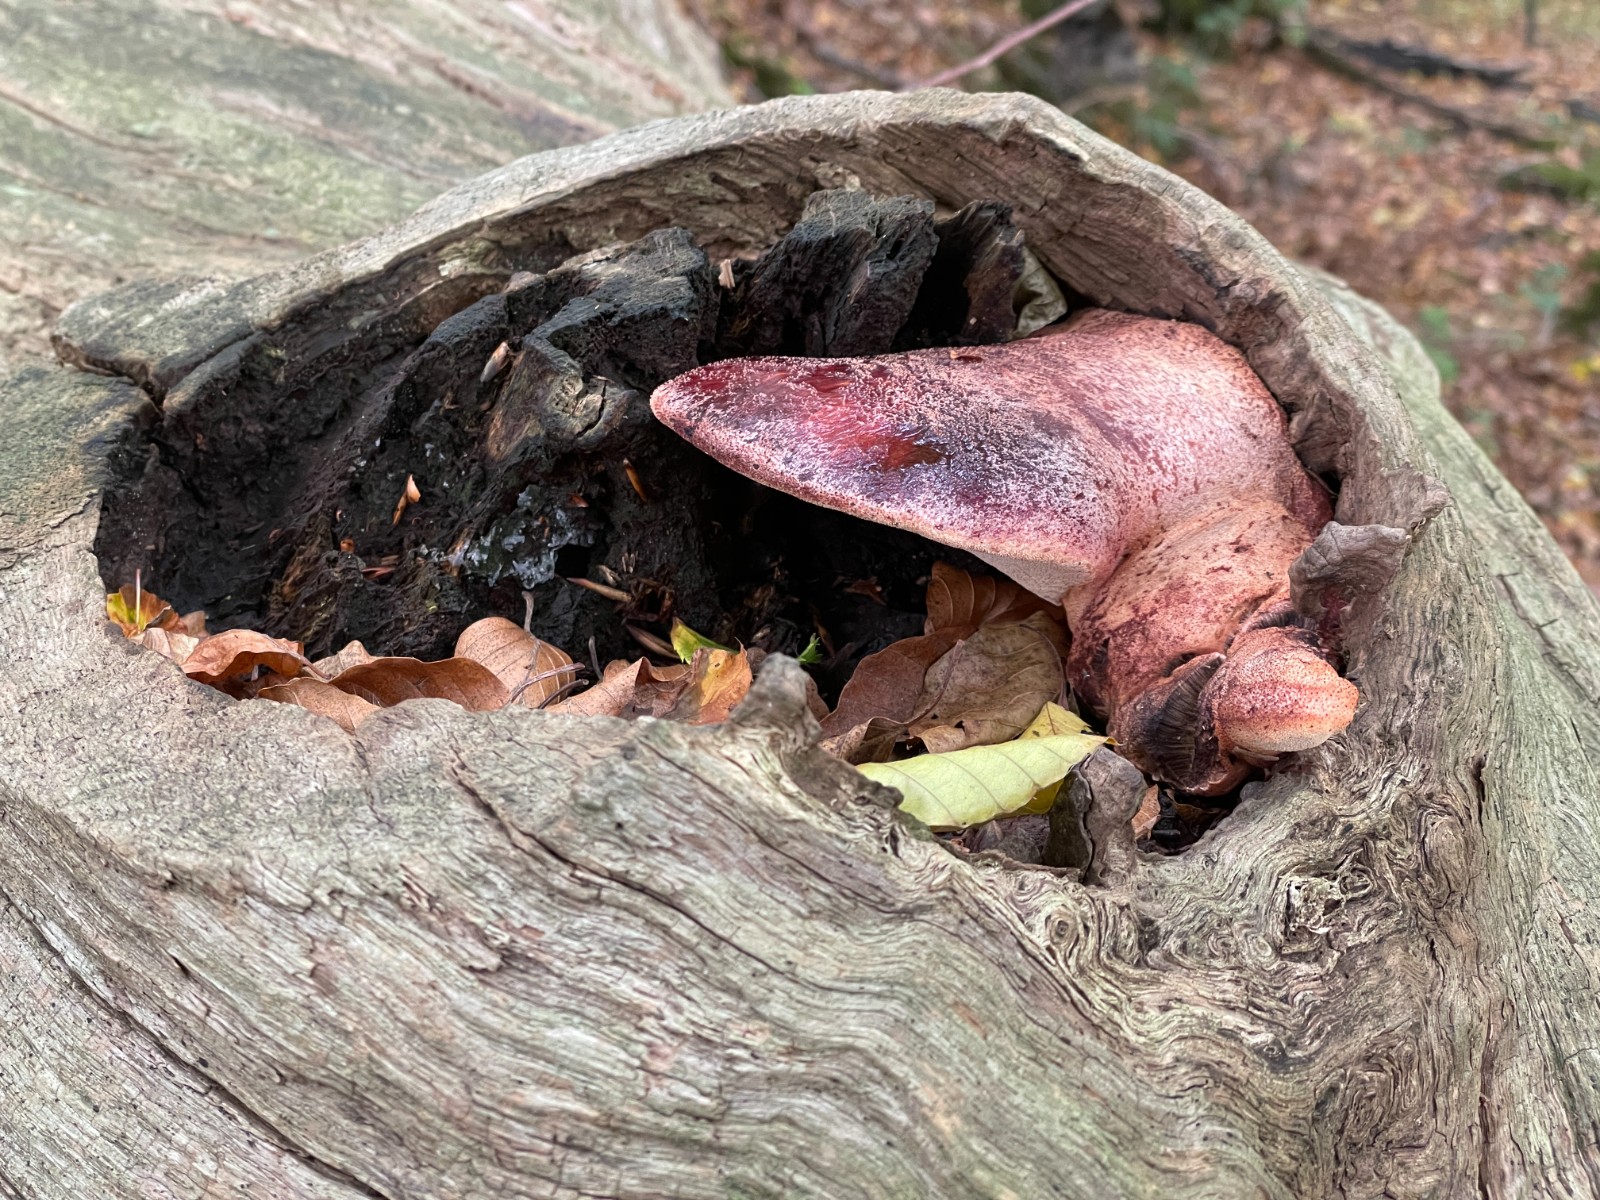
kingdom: Fungi
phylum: Basidiomycota
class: Agaricomycetes
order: Agaricales
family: Fistulinaceae
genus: Fistulina
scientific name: Fistulina hepatica
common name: oksetunge
